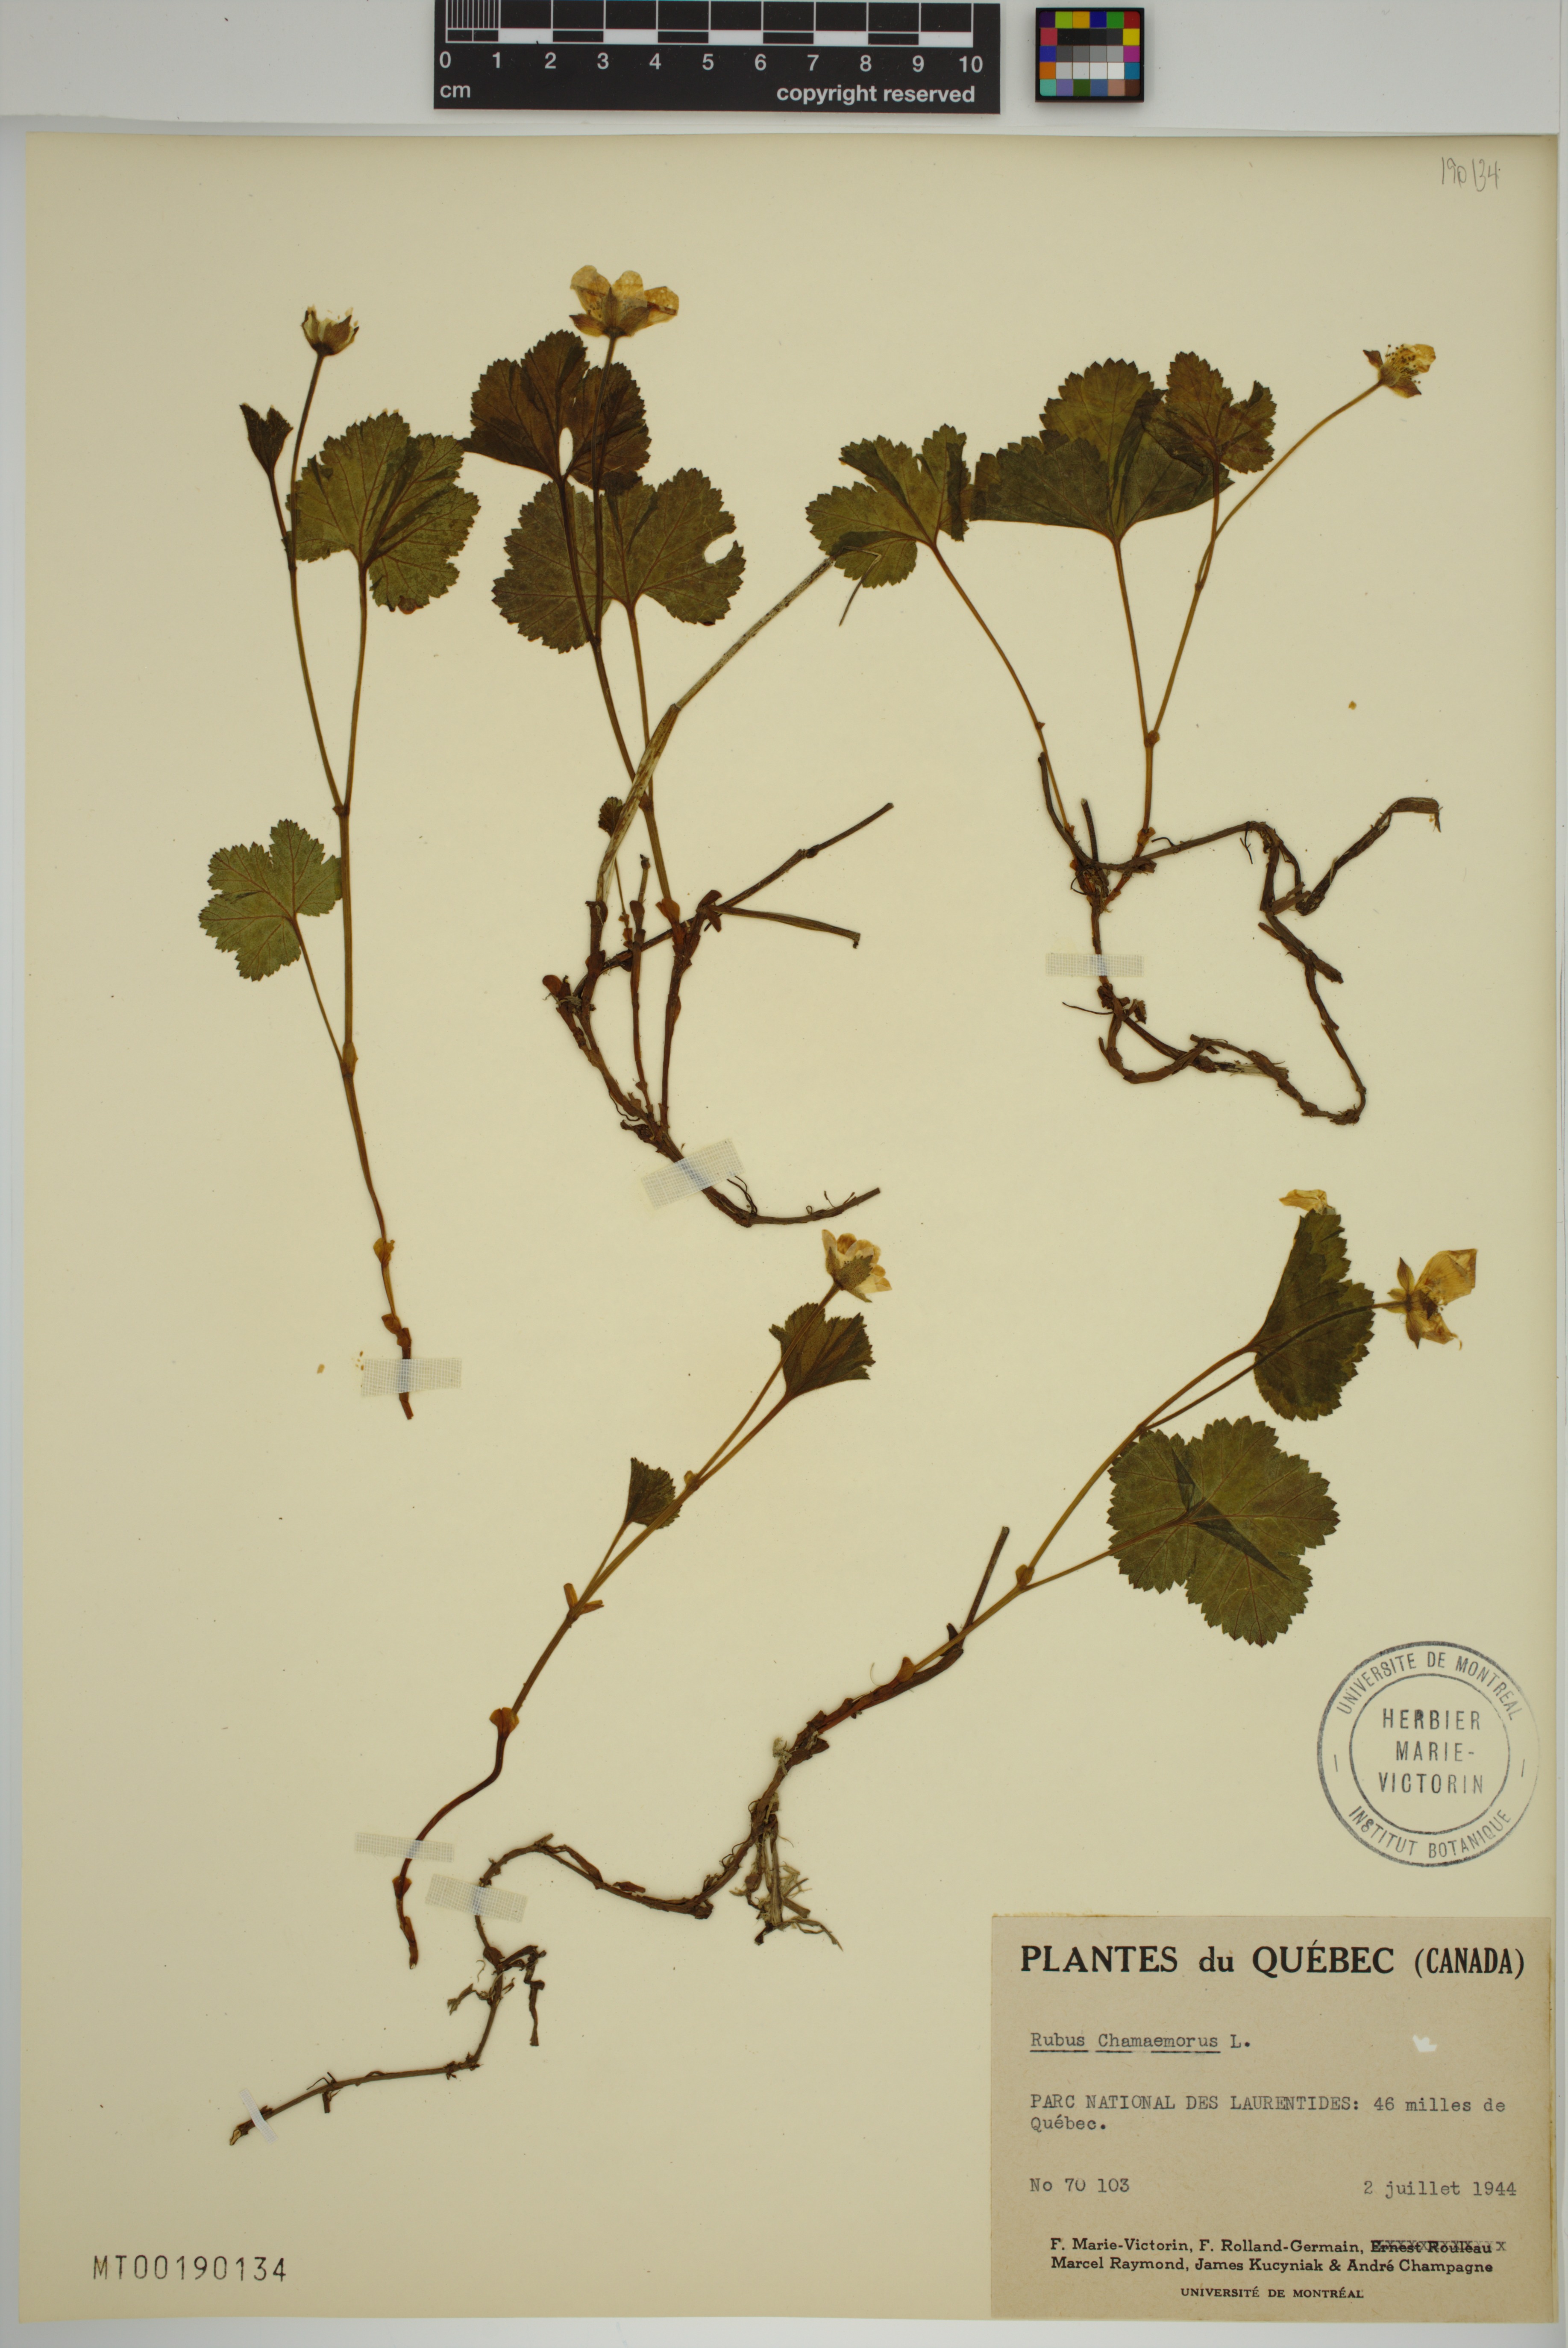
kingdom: Plantae
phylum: Tracheophyta
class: Magnoliopsida
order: Rosales
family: Rosaceae
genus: Rubus
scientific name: Rubus chamaemorus
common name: Cloudberry
